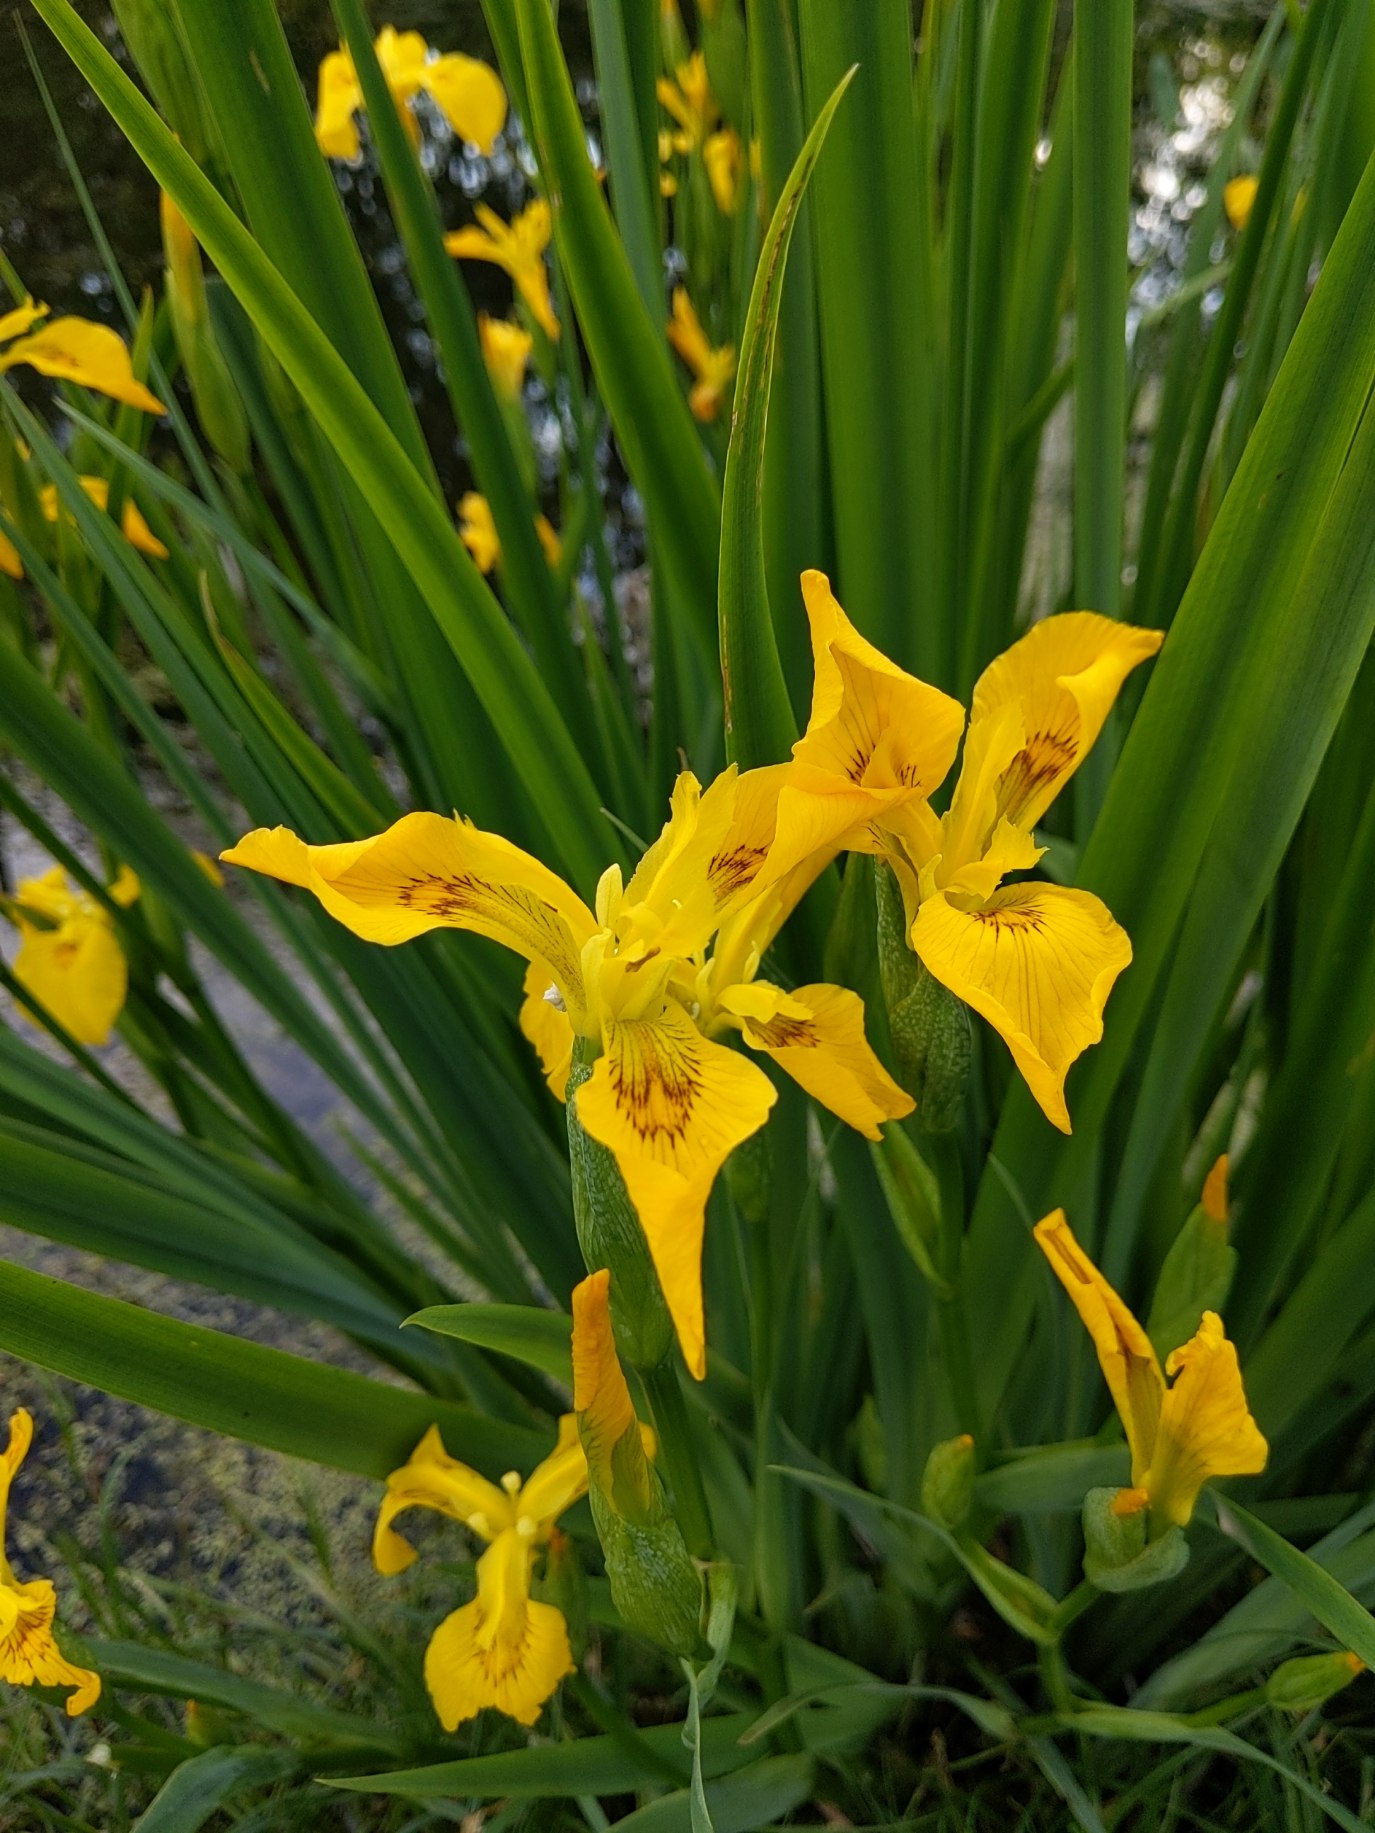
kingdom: Plantae
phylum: Tracheophyta
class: Liliopsida
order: Asparagales
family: Iridaceae
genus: Iris
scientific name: Iris pseudacorus
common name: Gul iris
